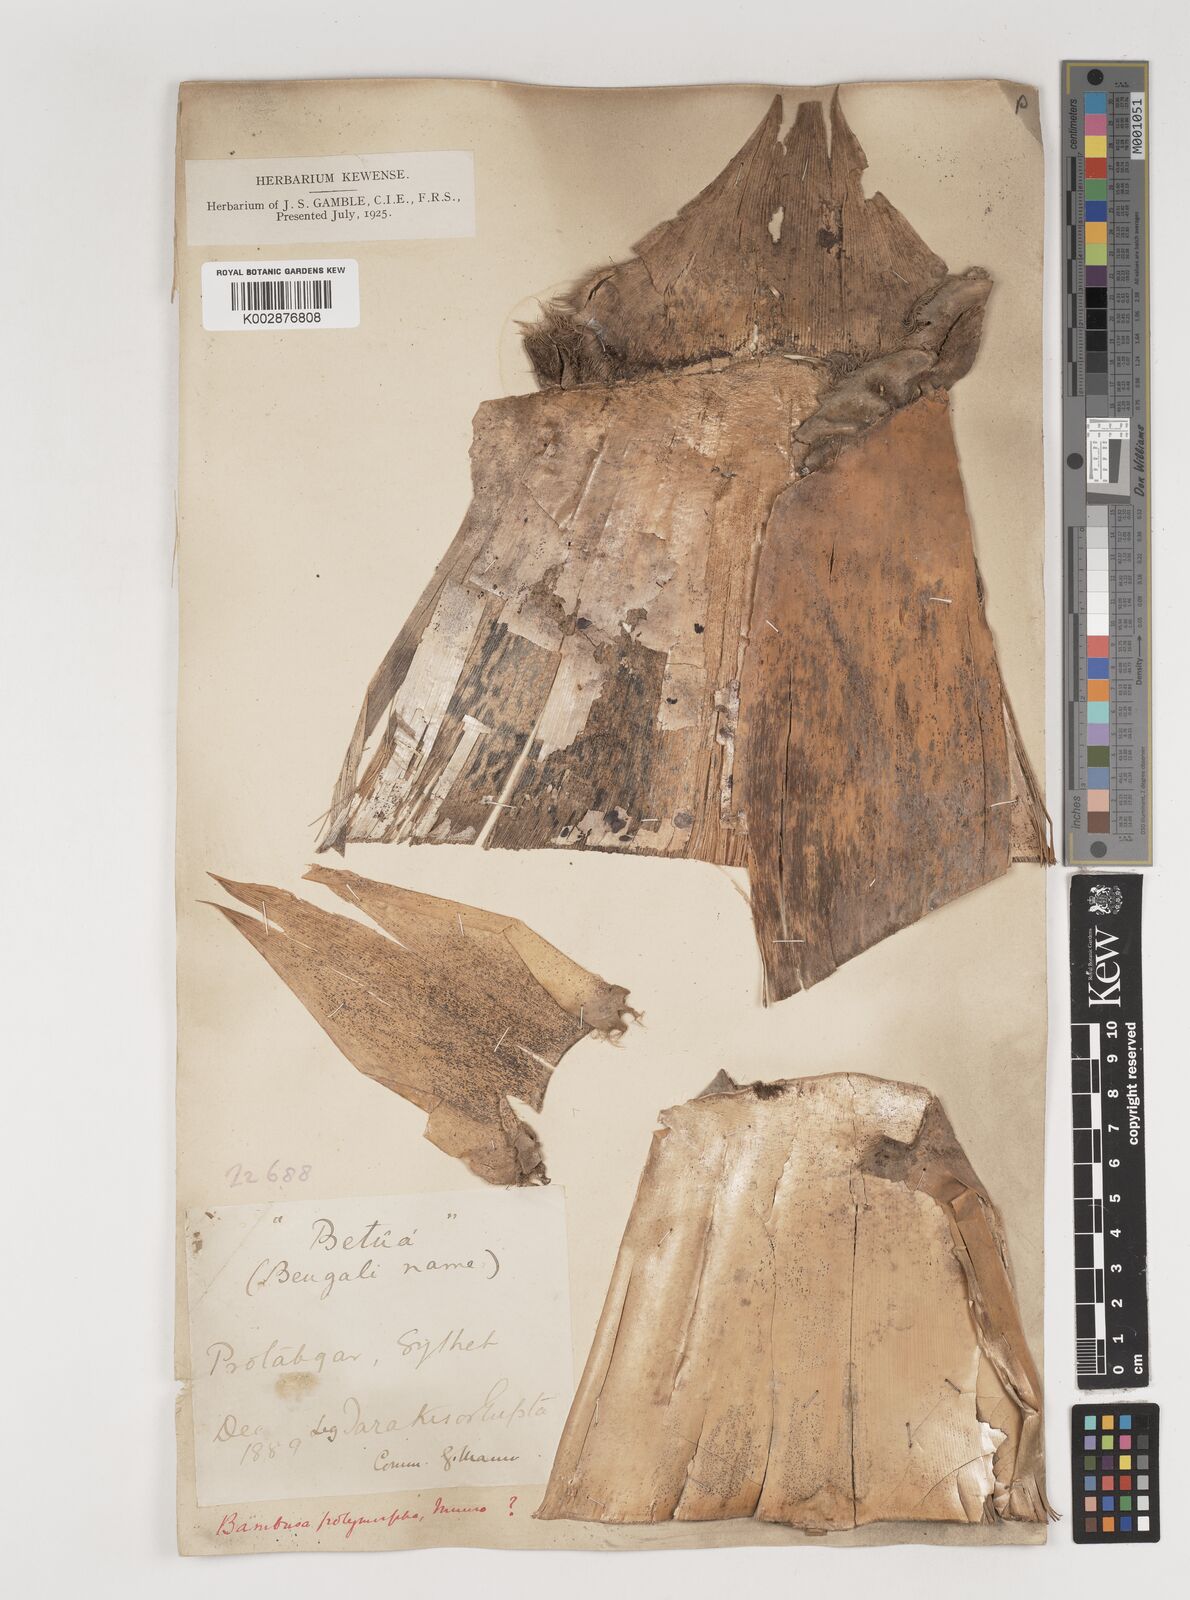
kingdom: Plantae
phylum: Tracheophyta
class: Liliopsida
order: Poales
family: Poaceae
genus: Bambusa
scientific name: Bambusa polymorpha
